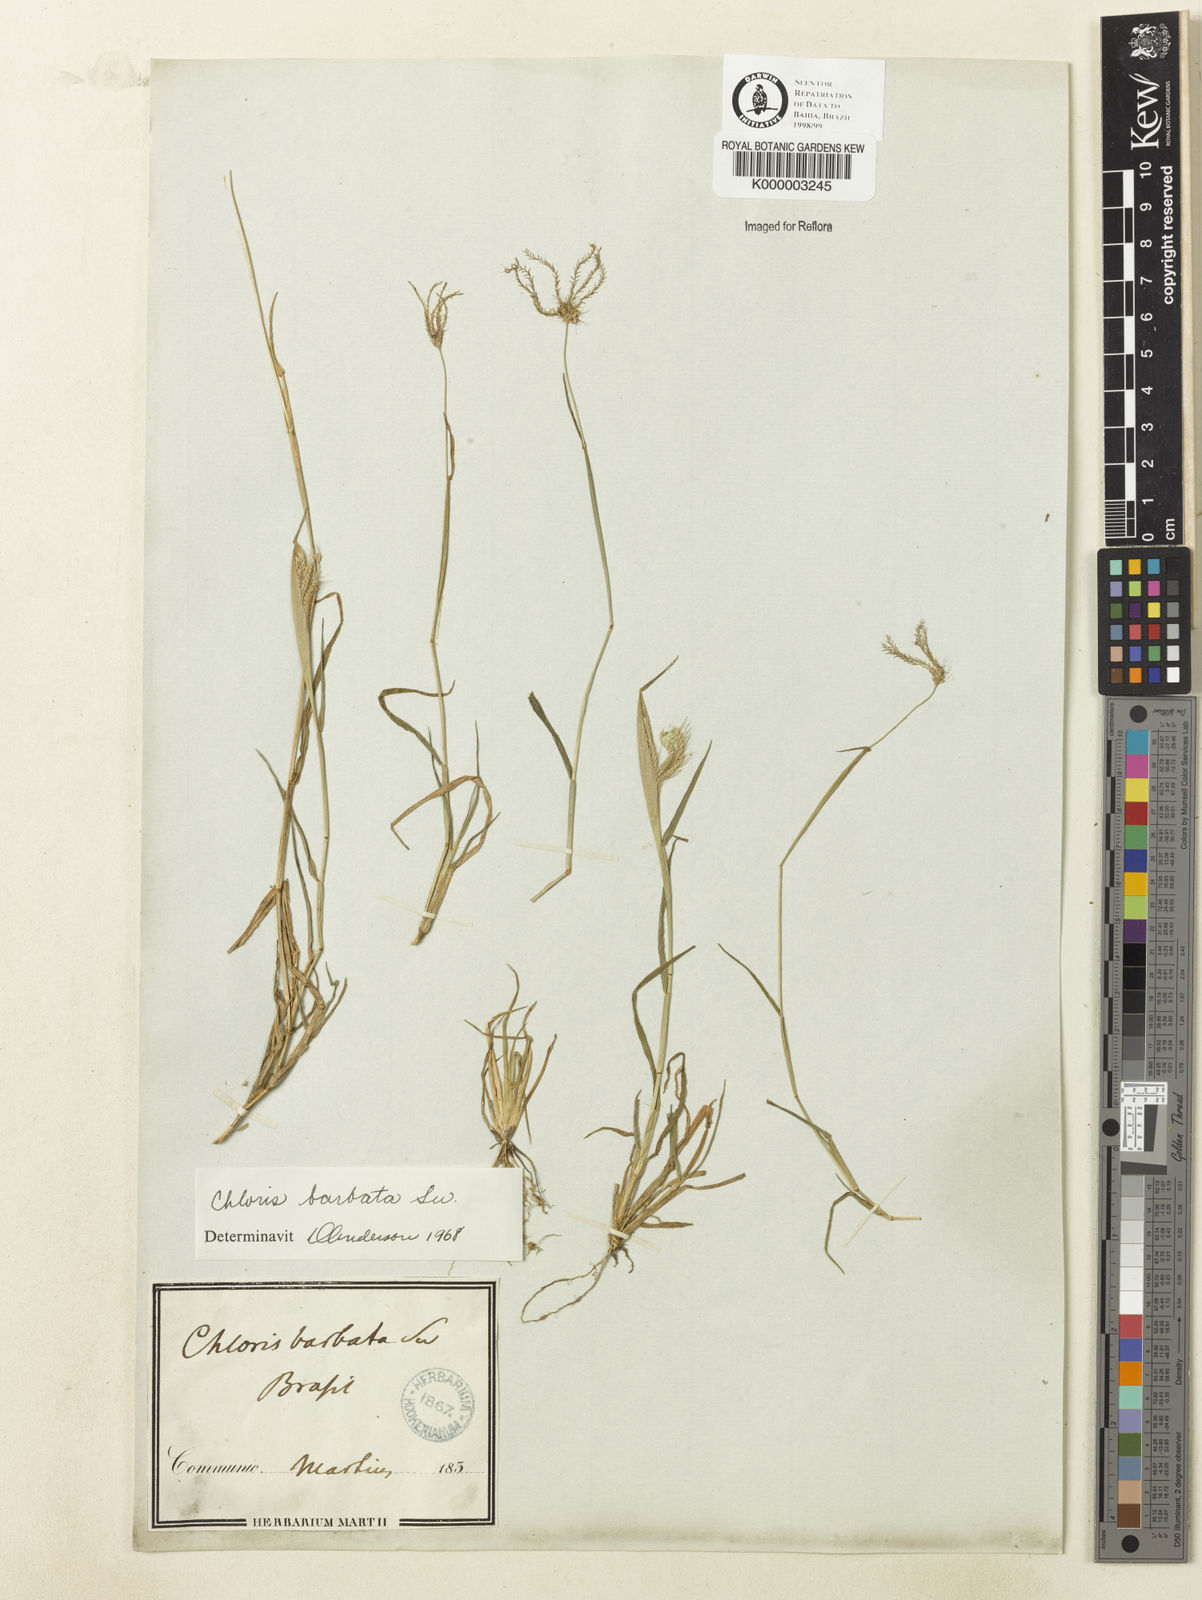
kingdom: Plantae
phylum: Tracheophyta
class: Liliopsida
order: Poales
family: Poaceae
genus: Chloris
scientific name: Chloris
